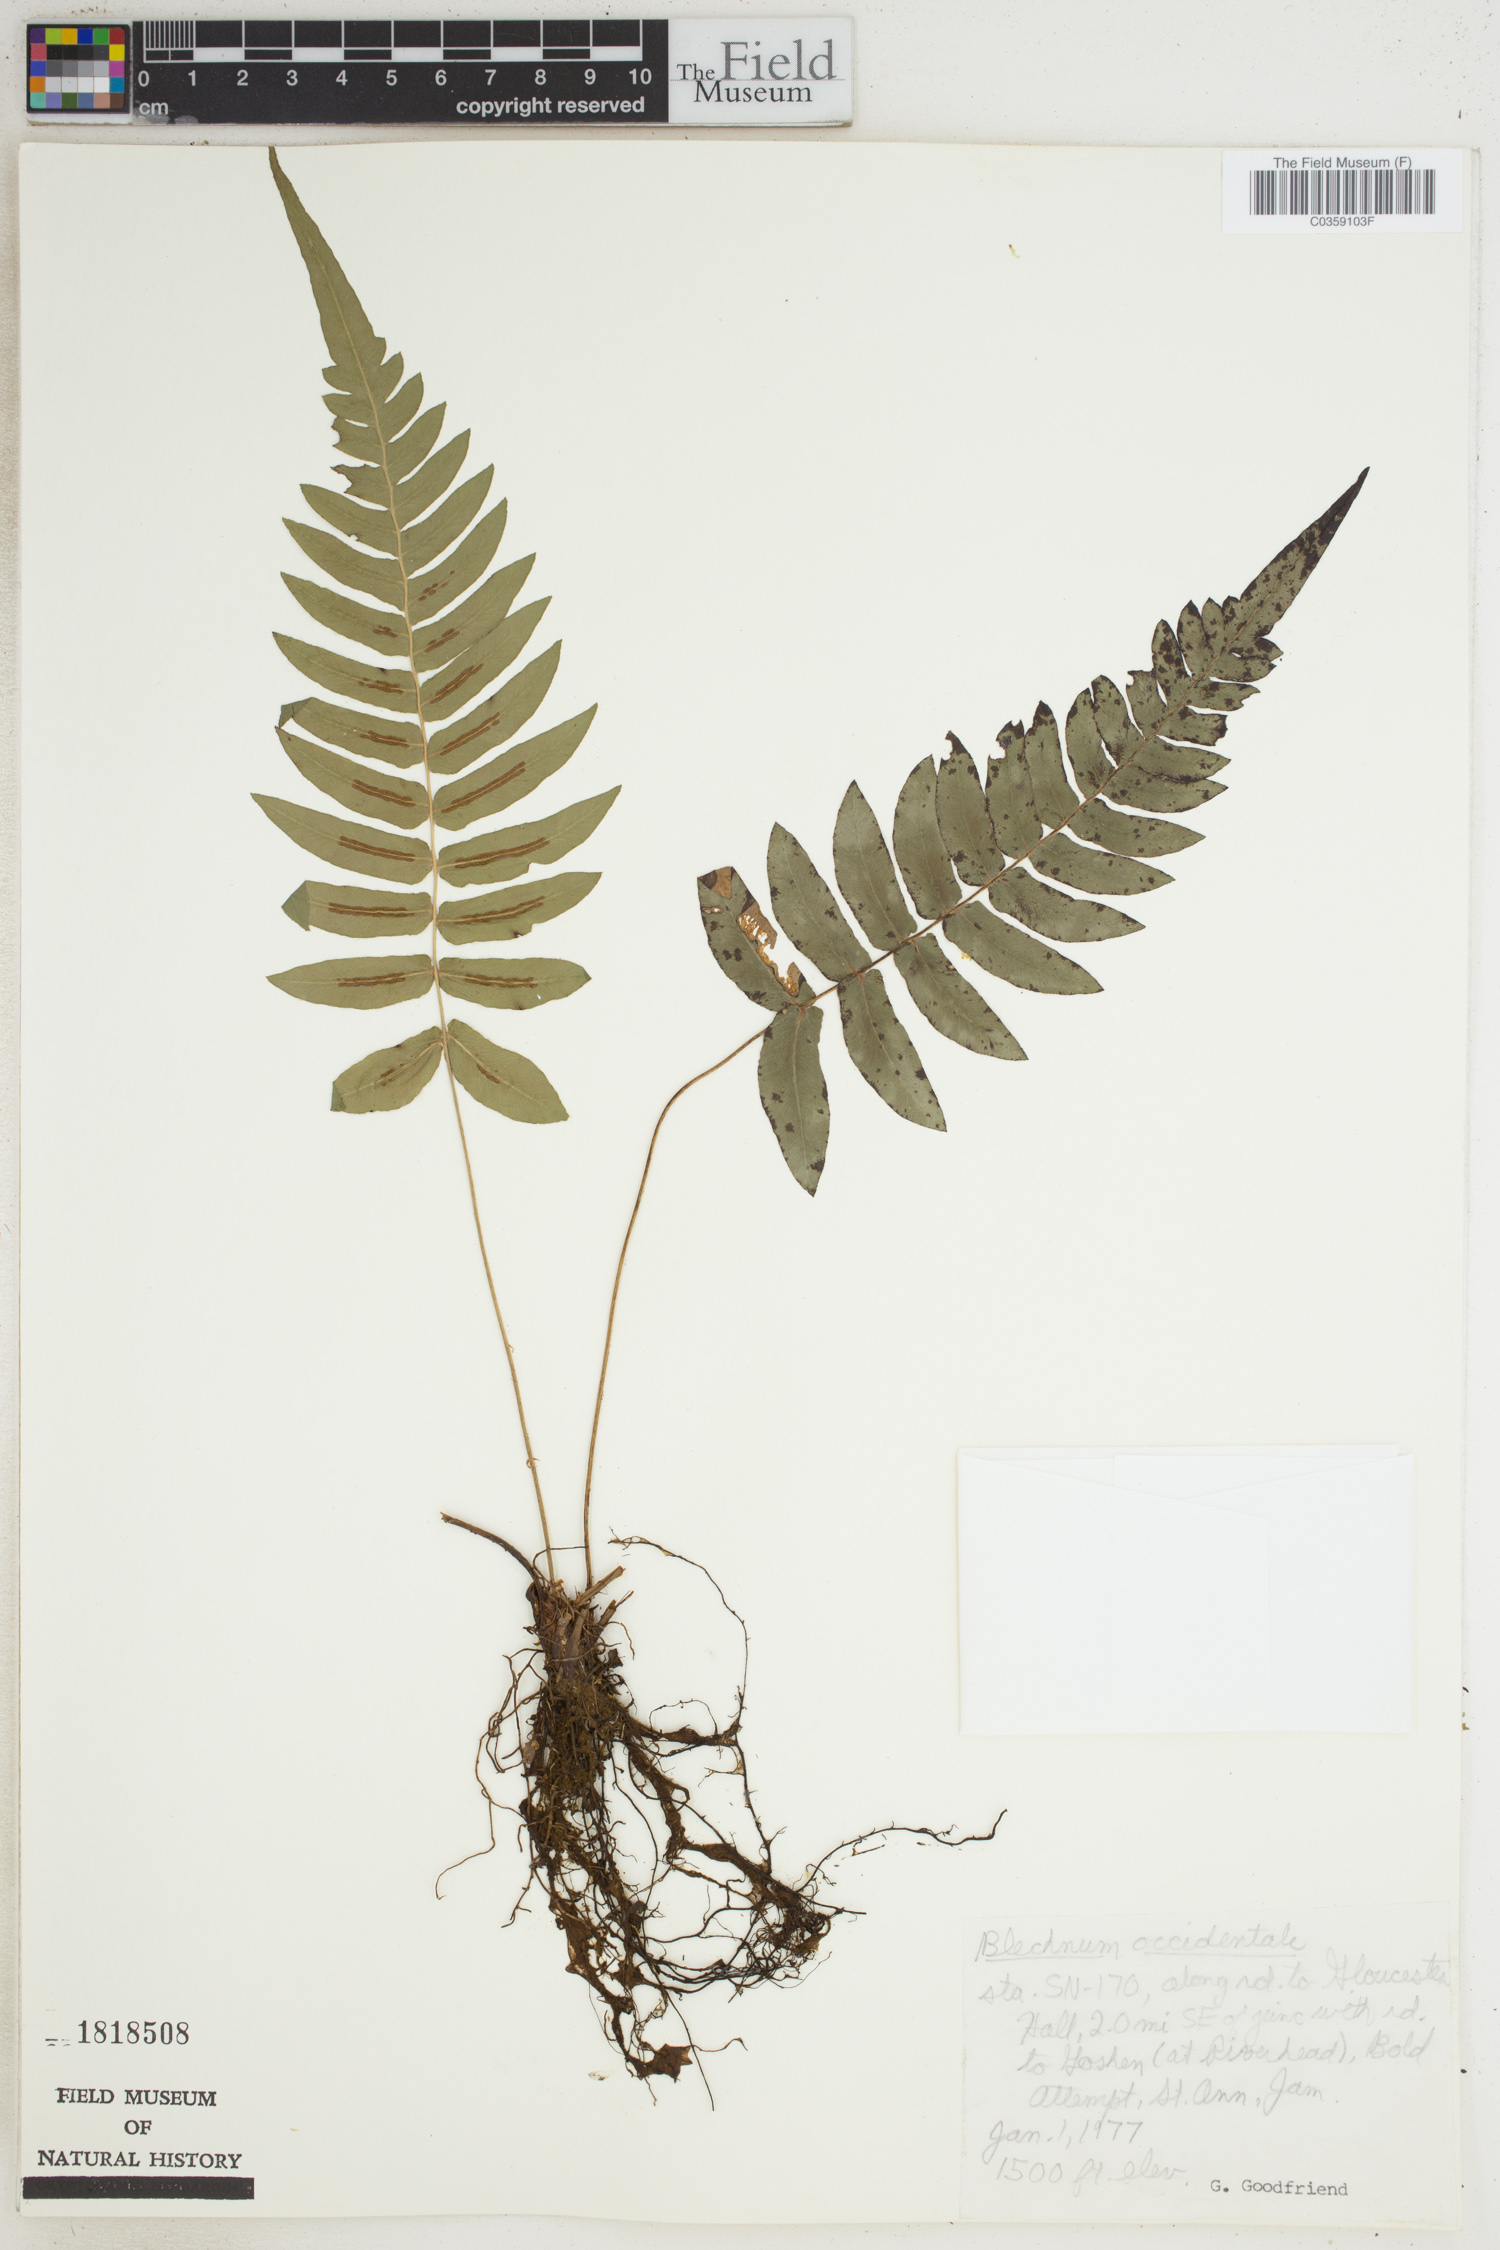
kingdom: Plantae
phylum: Tracheophyta
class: Polypodiopsida
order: Polypodiales
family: Blechnaceae
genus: Blechnum
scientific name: Blechnum occidentale
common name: Hammock fern
